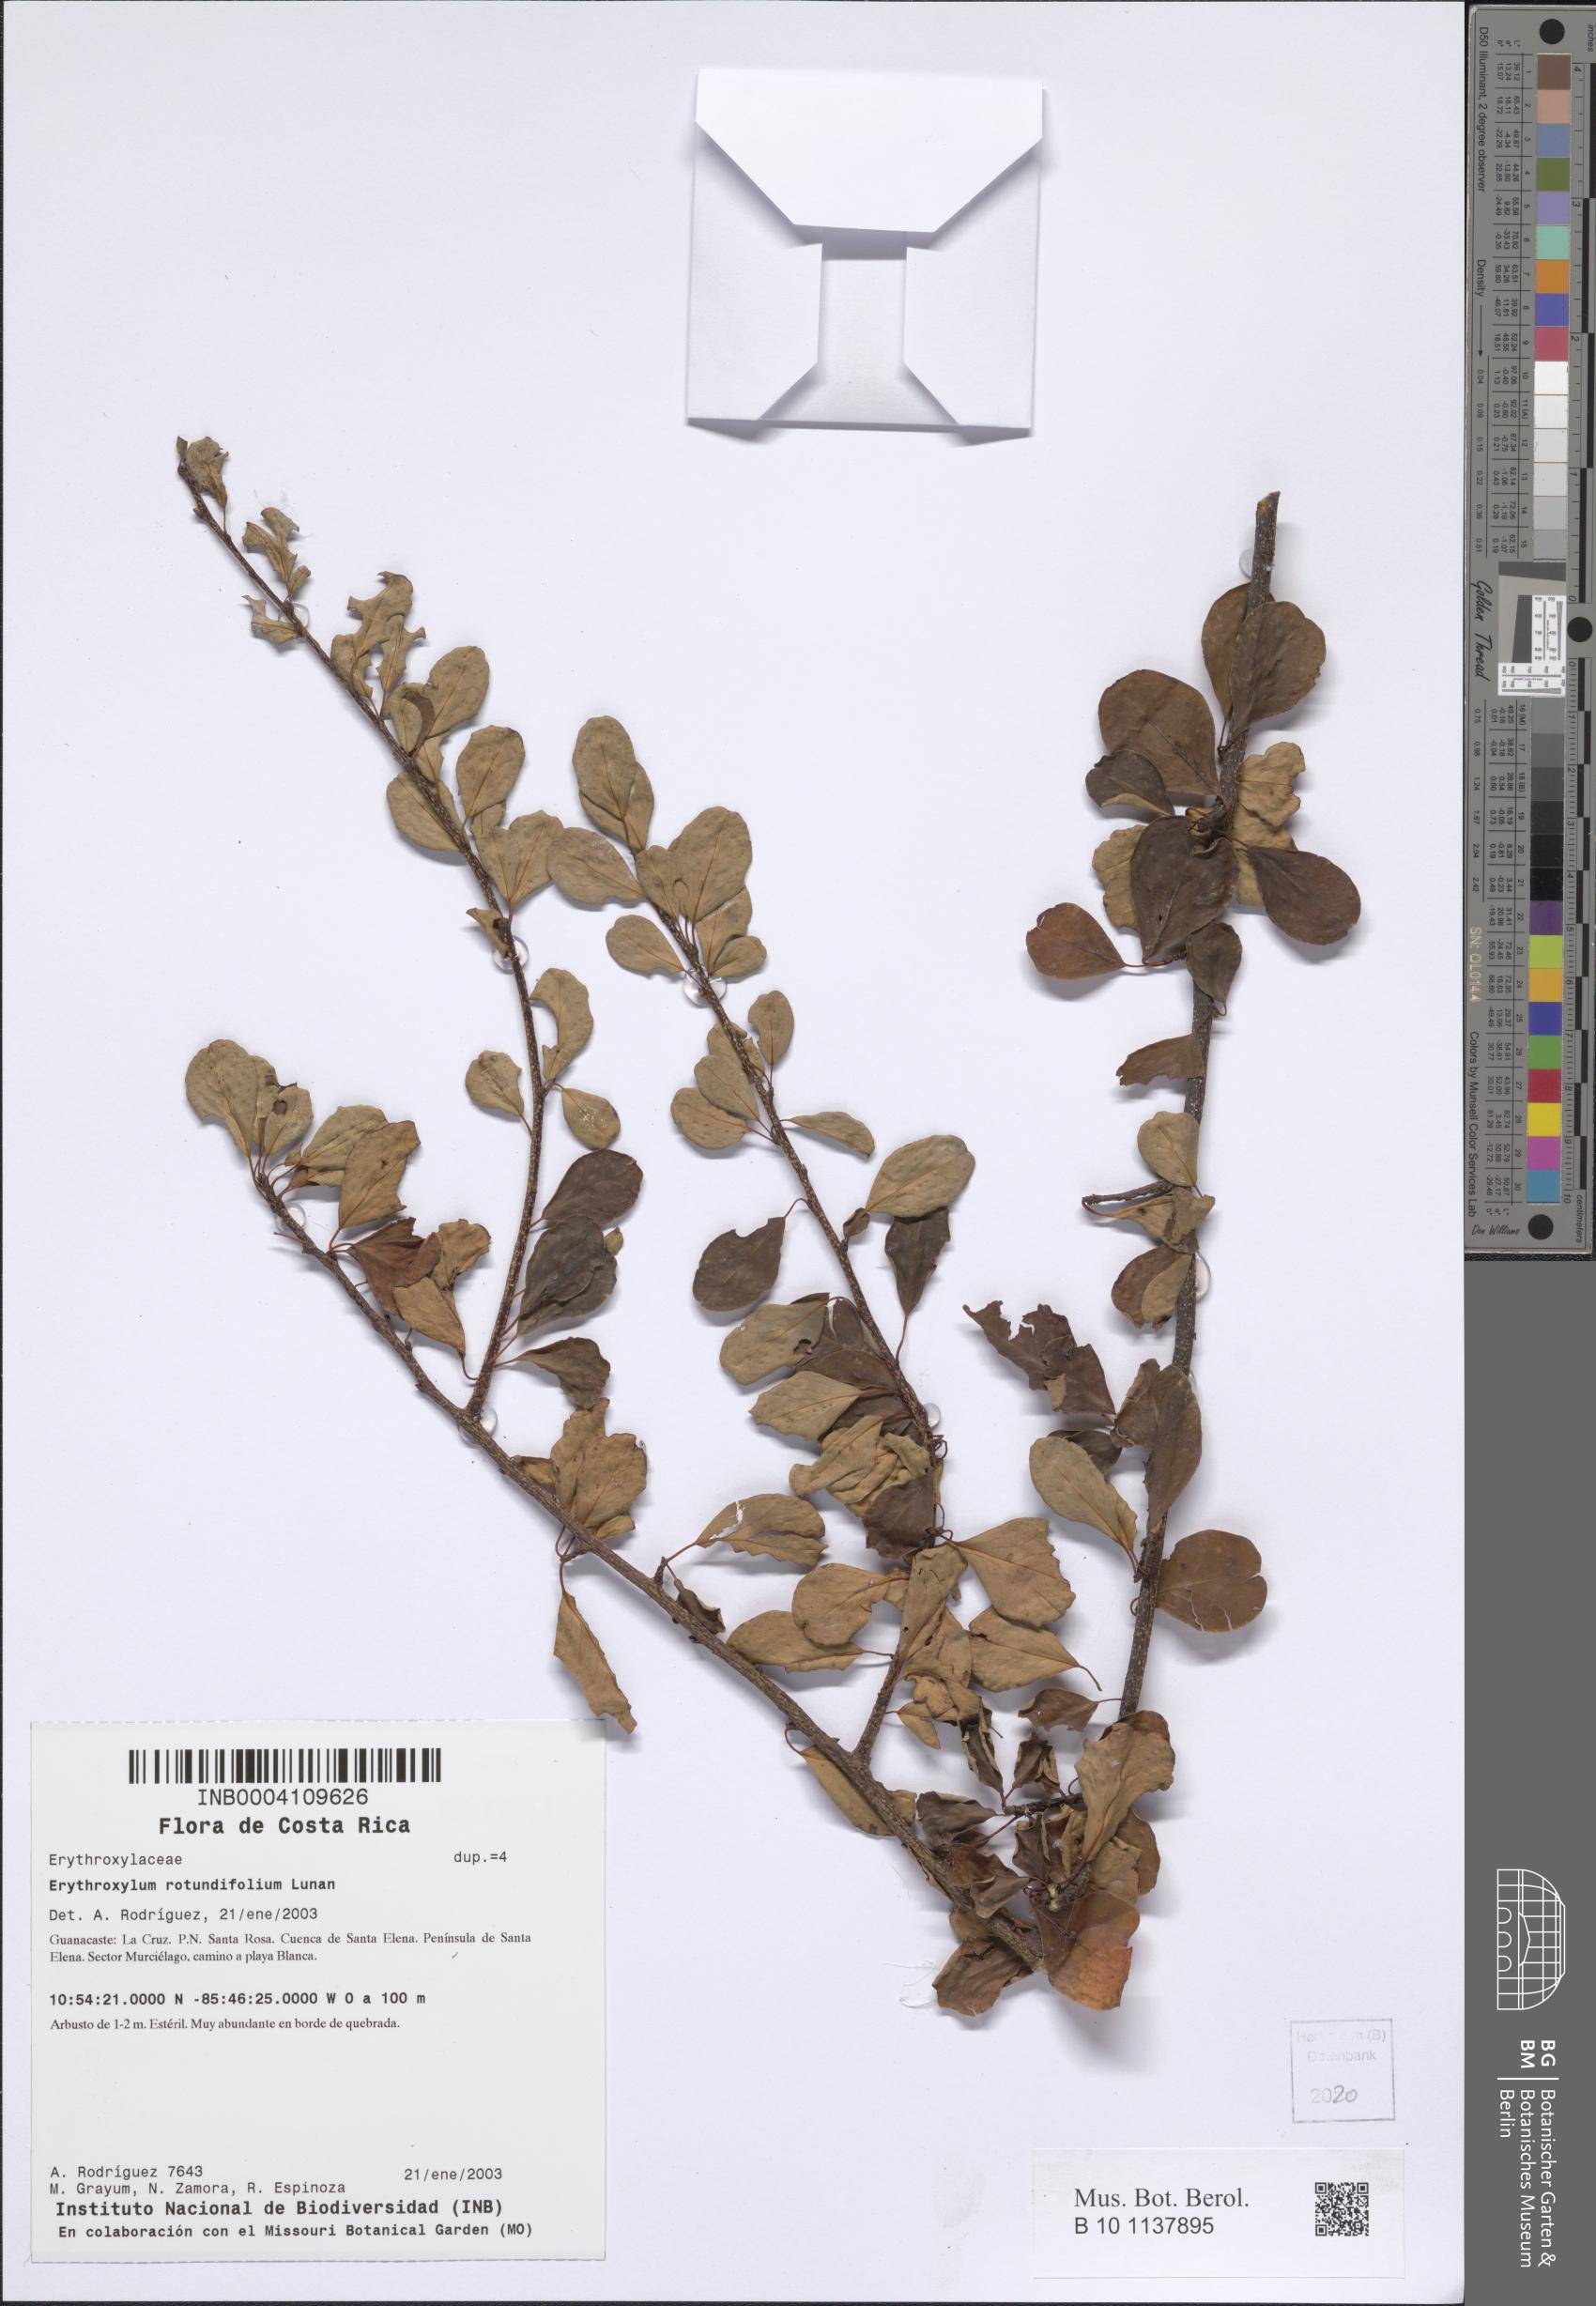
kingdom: Plantae
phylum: Tracheophyta
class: Magnoliopsida
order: Malpighiales
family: Erythroxylaceae
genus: Erythroxylum
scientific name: Erythroxylum rotundifolium
